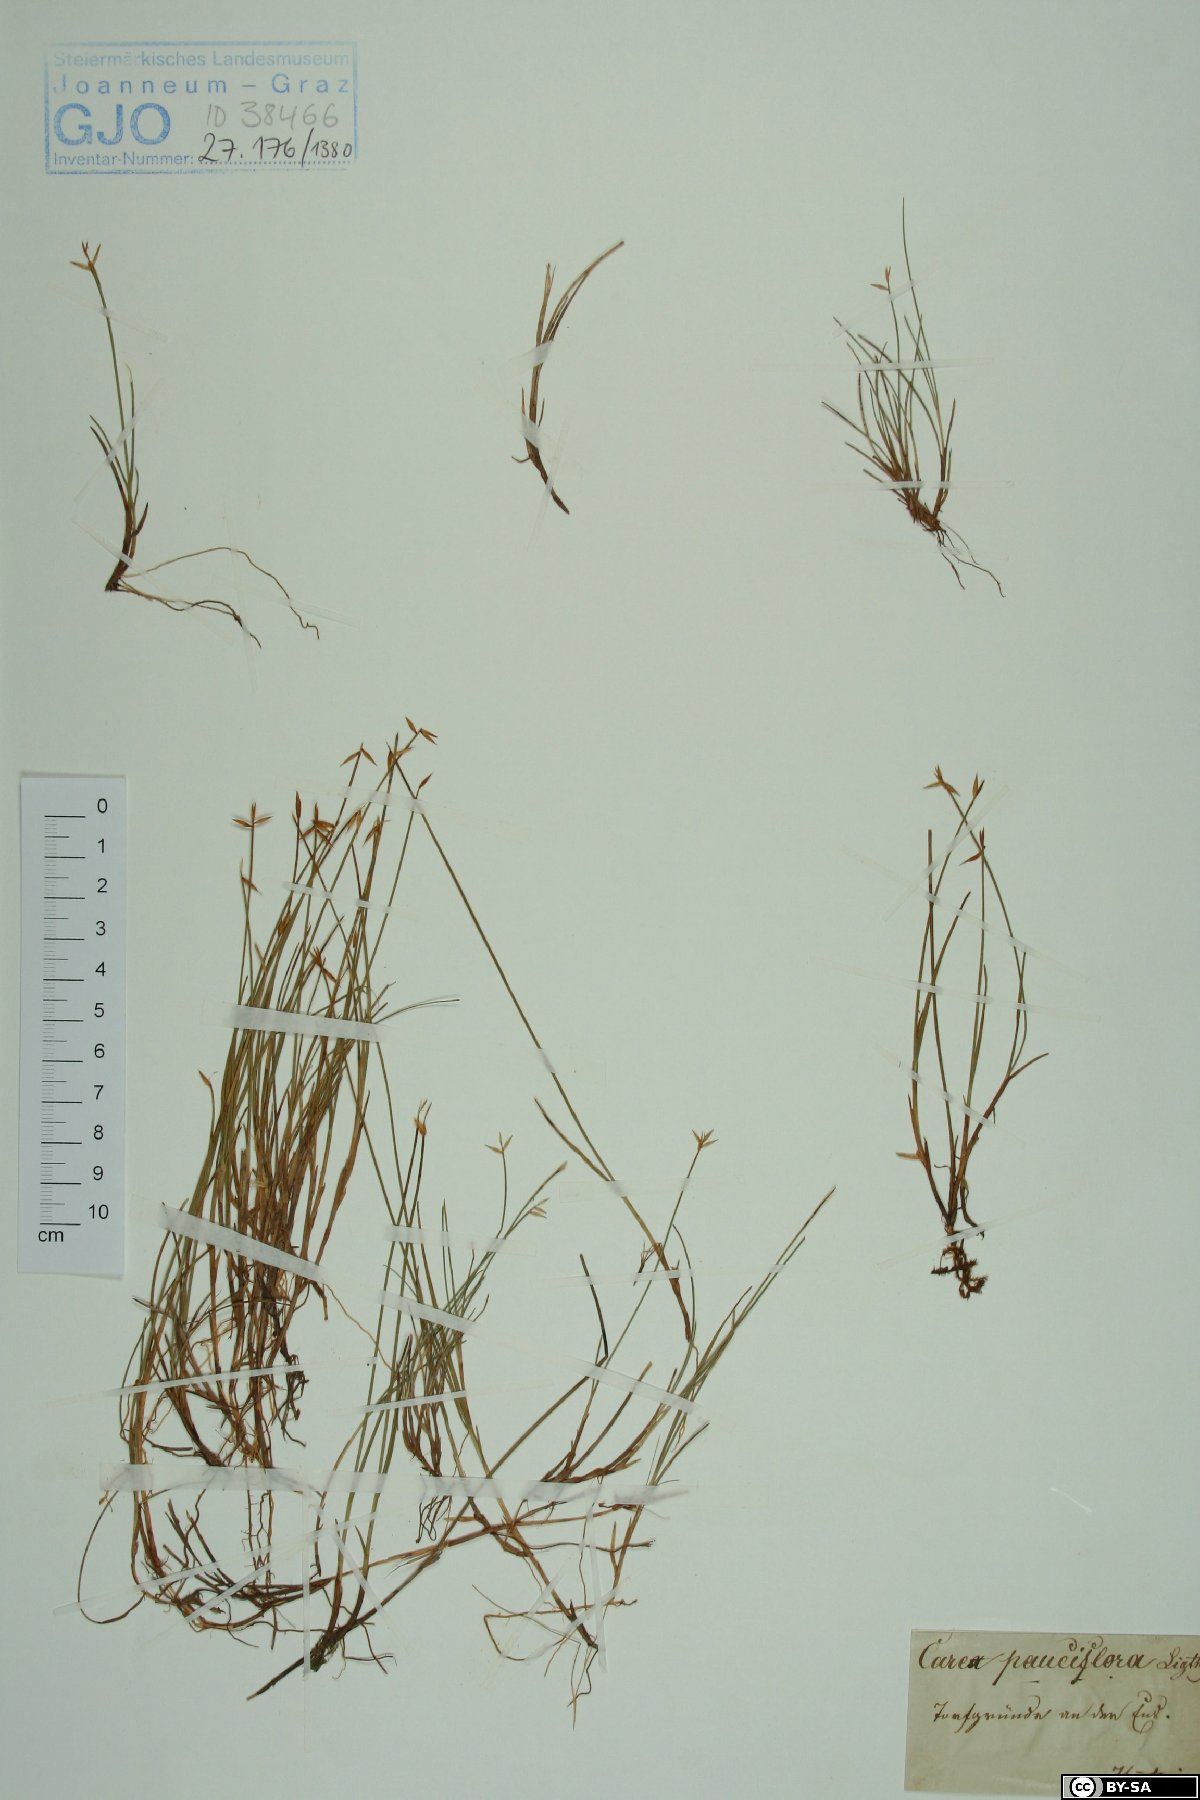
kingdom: Plantae
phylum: Tracheophyta
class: Liliopsida
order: Poales
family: Cyperaceae
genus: Carex
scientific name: Carex pauciflora
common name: Few-flowered sedge
